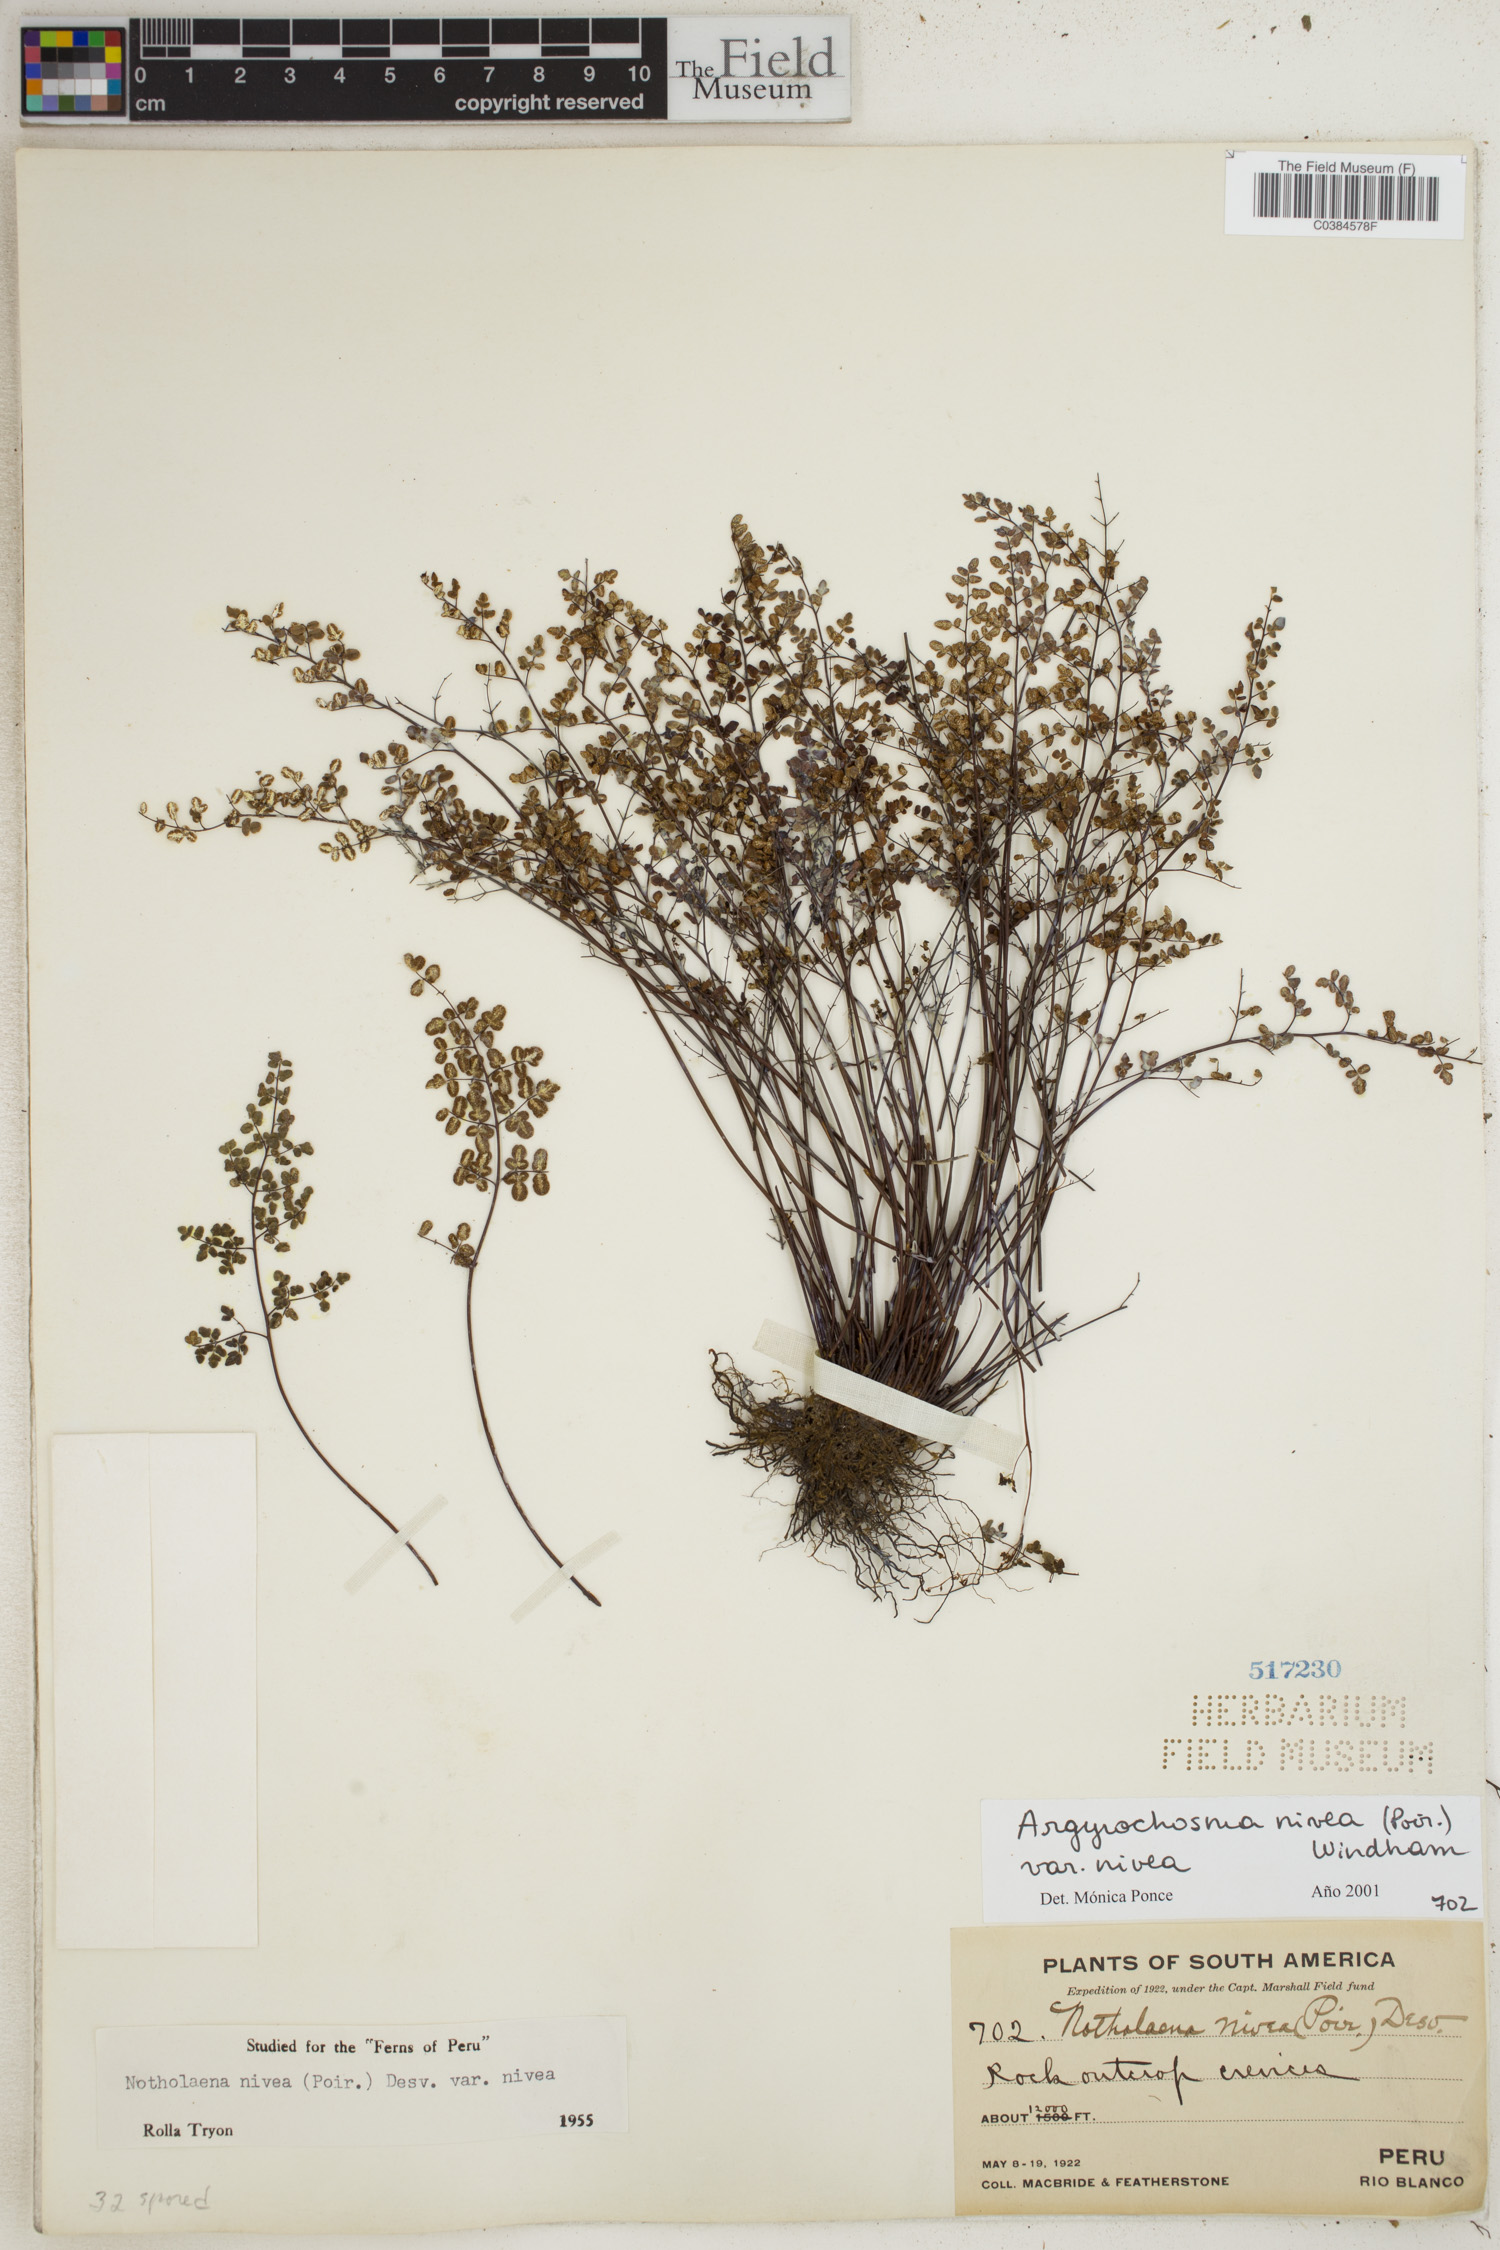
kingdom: Plantae
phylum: Tracheophyta
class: Polypodiopsida
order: Polypodiales
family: Pteridaceae
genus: Argyrochosma
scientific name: Argyrochosma nivea
